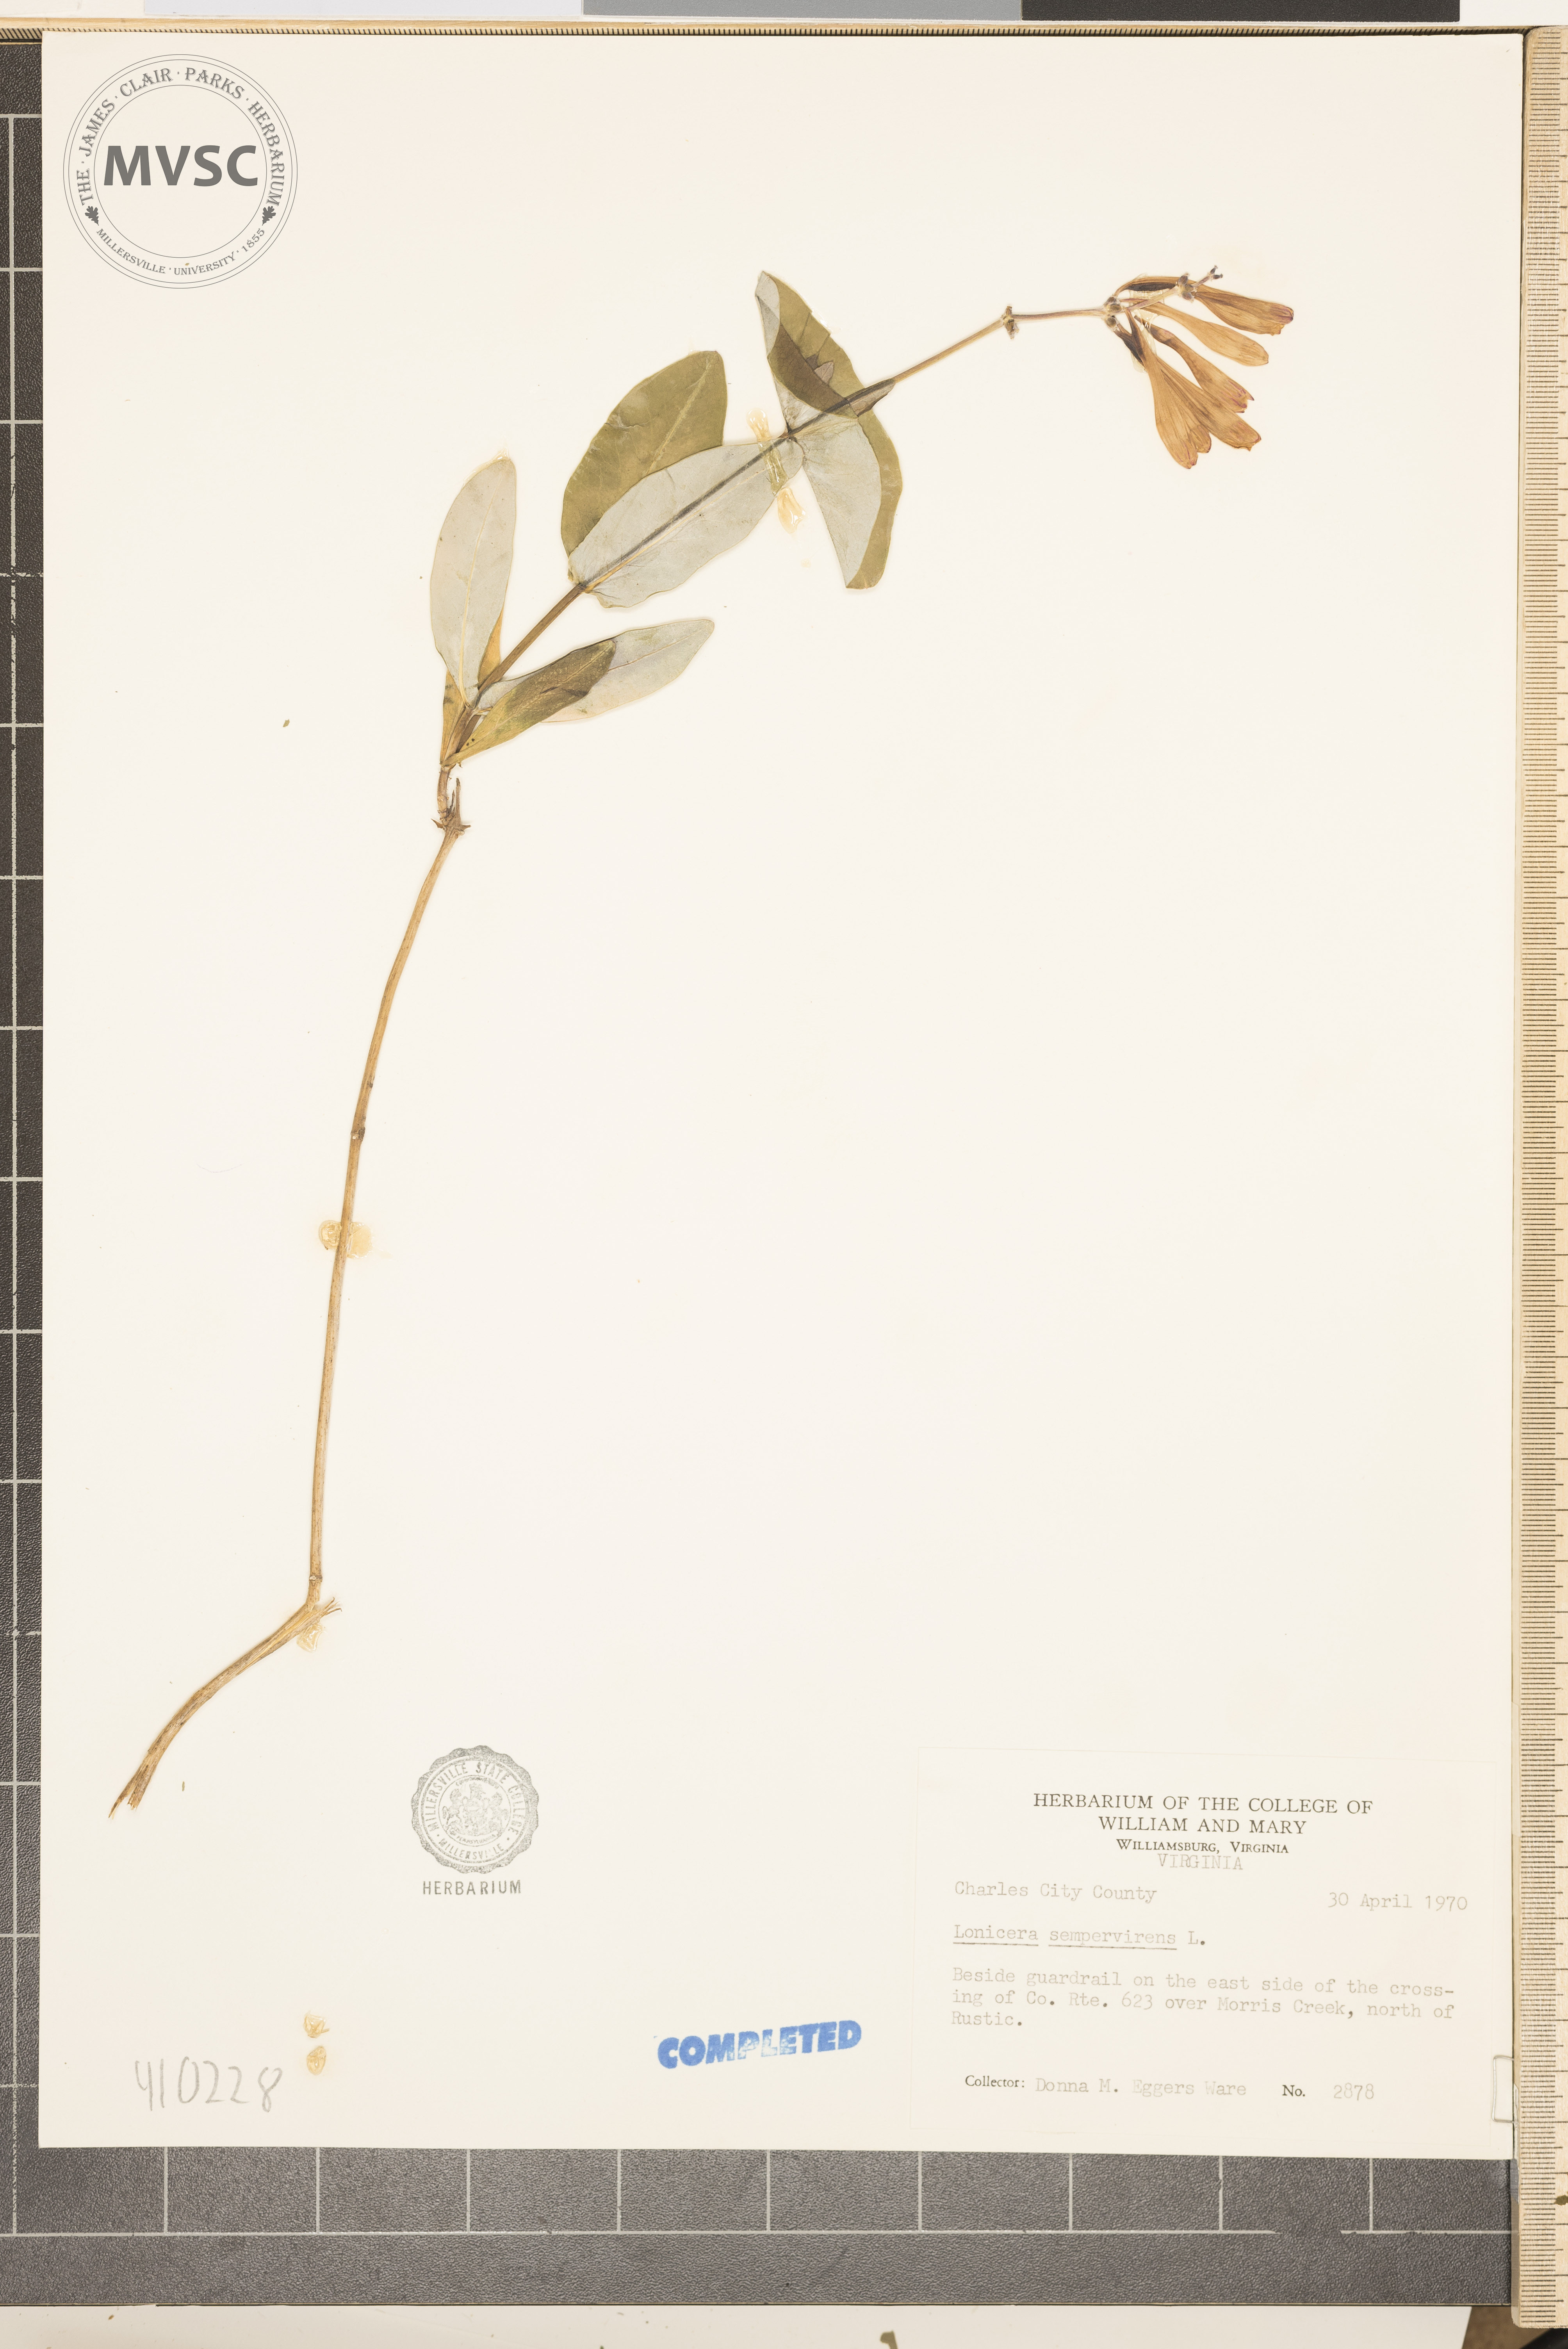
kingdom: Plantae
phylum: Tracheophyta
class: Magnoliopsida
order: Dipsacales
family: Caprifoliaceae
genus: Lonicera
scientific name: Lonicera sempervirens
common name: Coral honeysuckle
